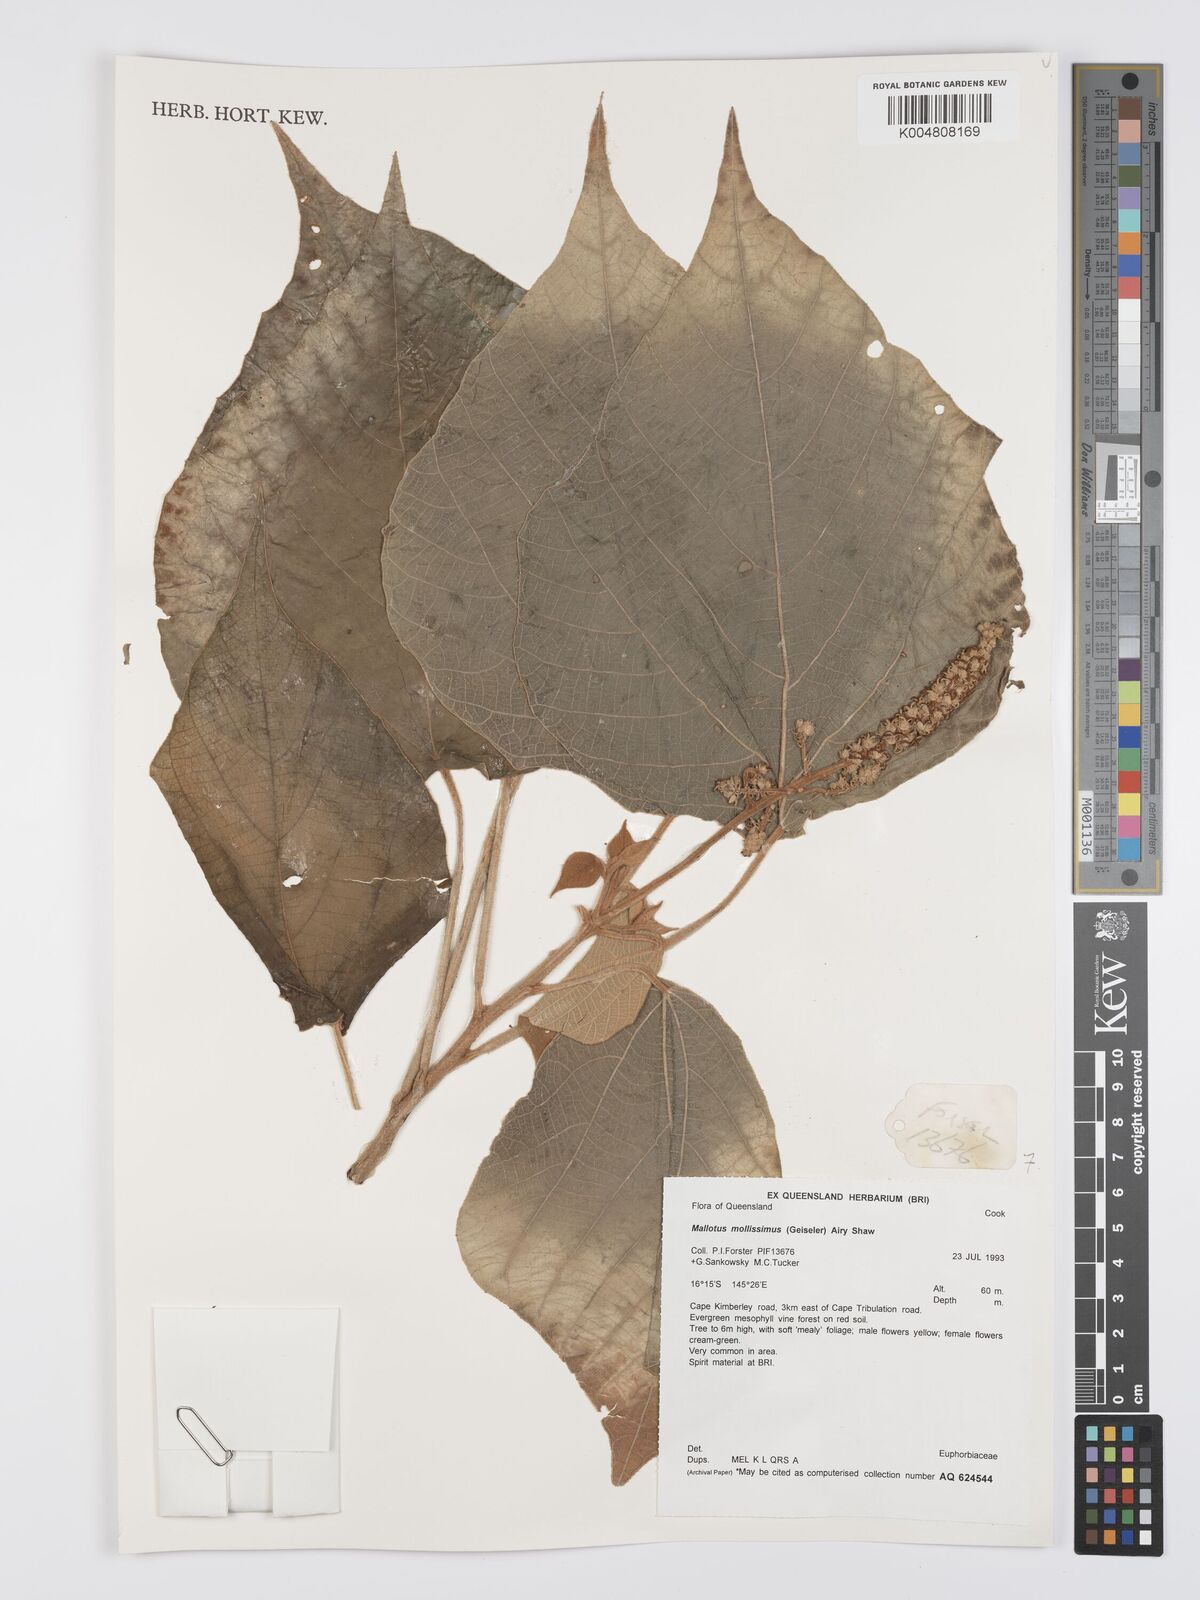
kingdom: Plantae
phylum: Tracheophyta
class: Magnoliopsida
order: Malpighiales
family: Euphorbiaceae
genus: Mallotus
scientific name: Mallotus mollissimus
